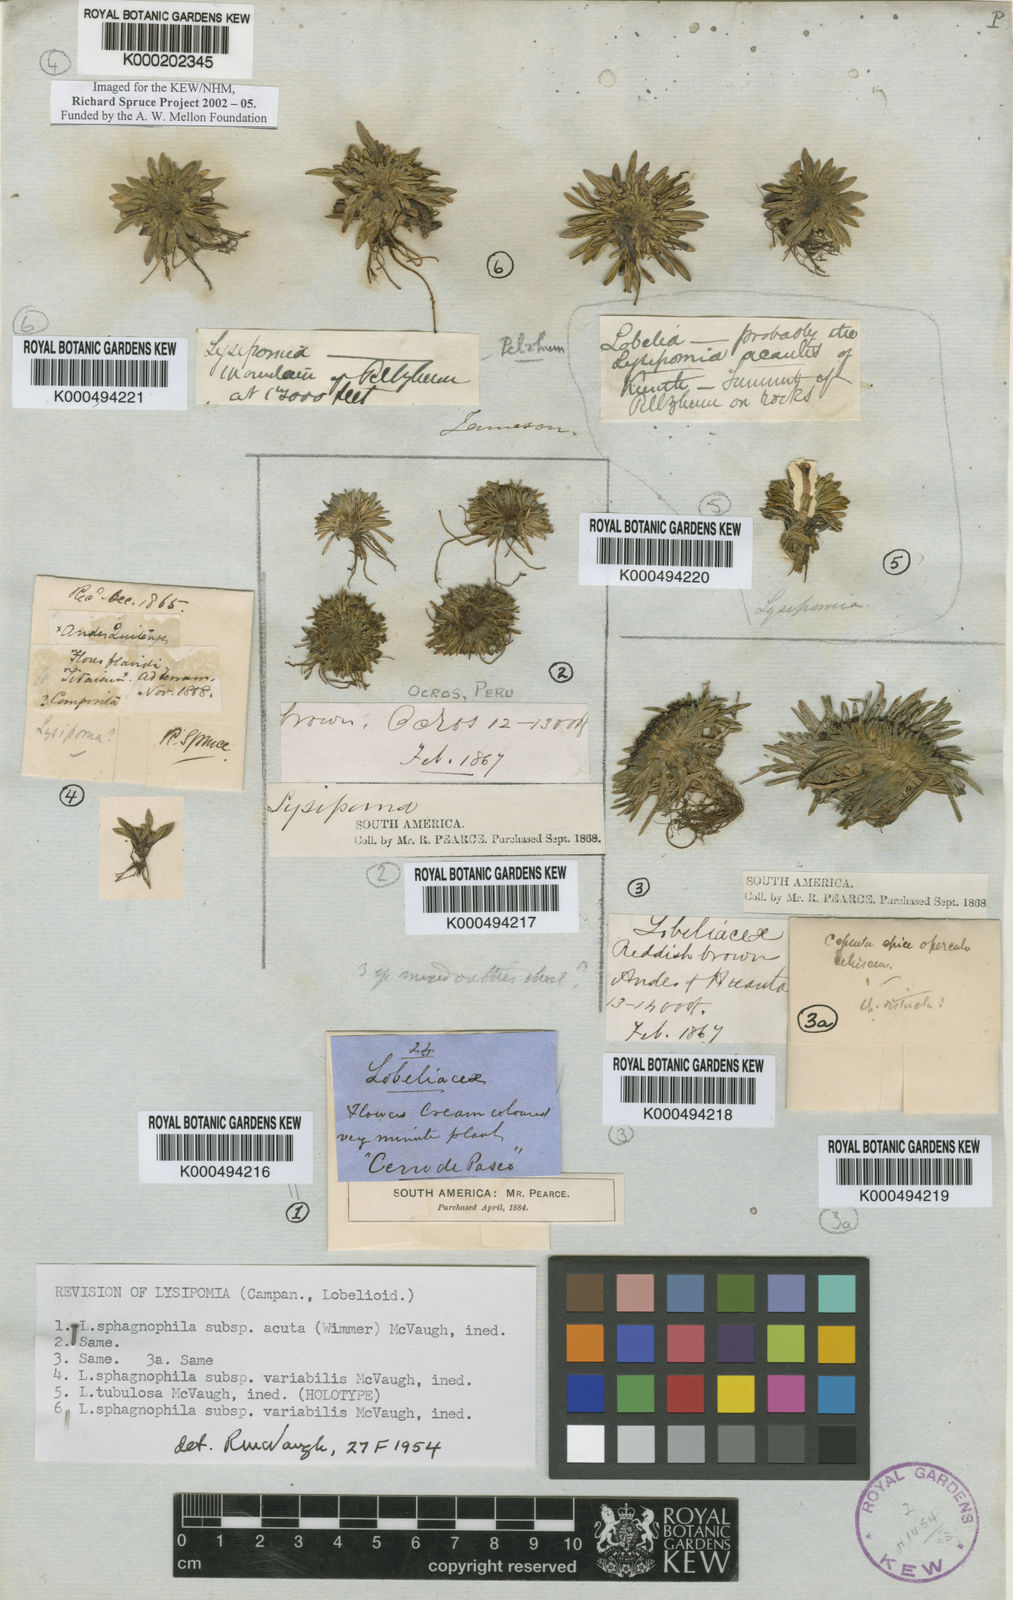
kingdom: Plantae
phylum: Tracheophyta
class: Magnoliopsida
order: Asterales
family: Campanulaceae
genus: Lysipomia
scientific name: Lysipomia tubulosa
